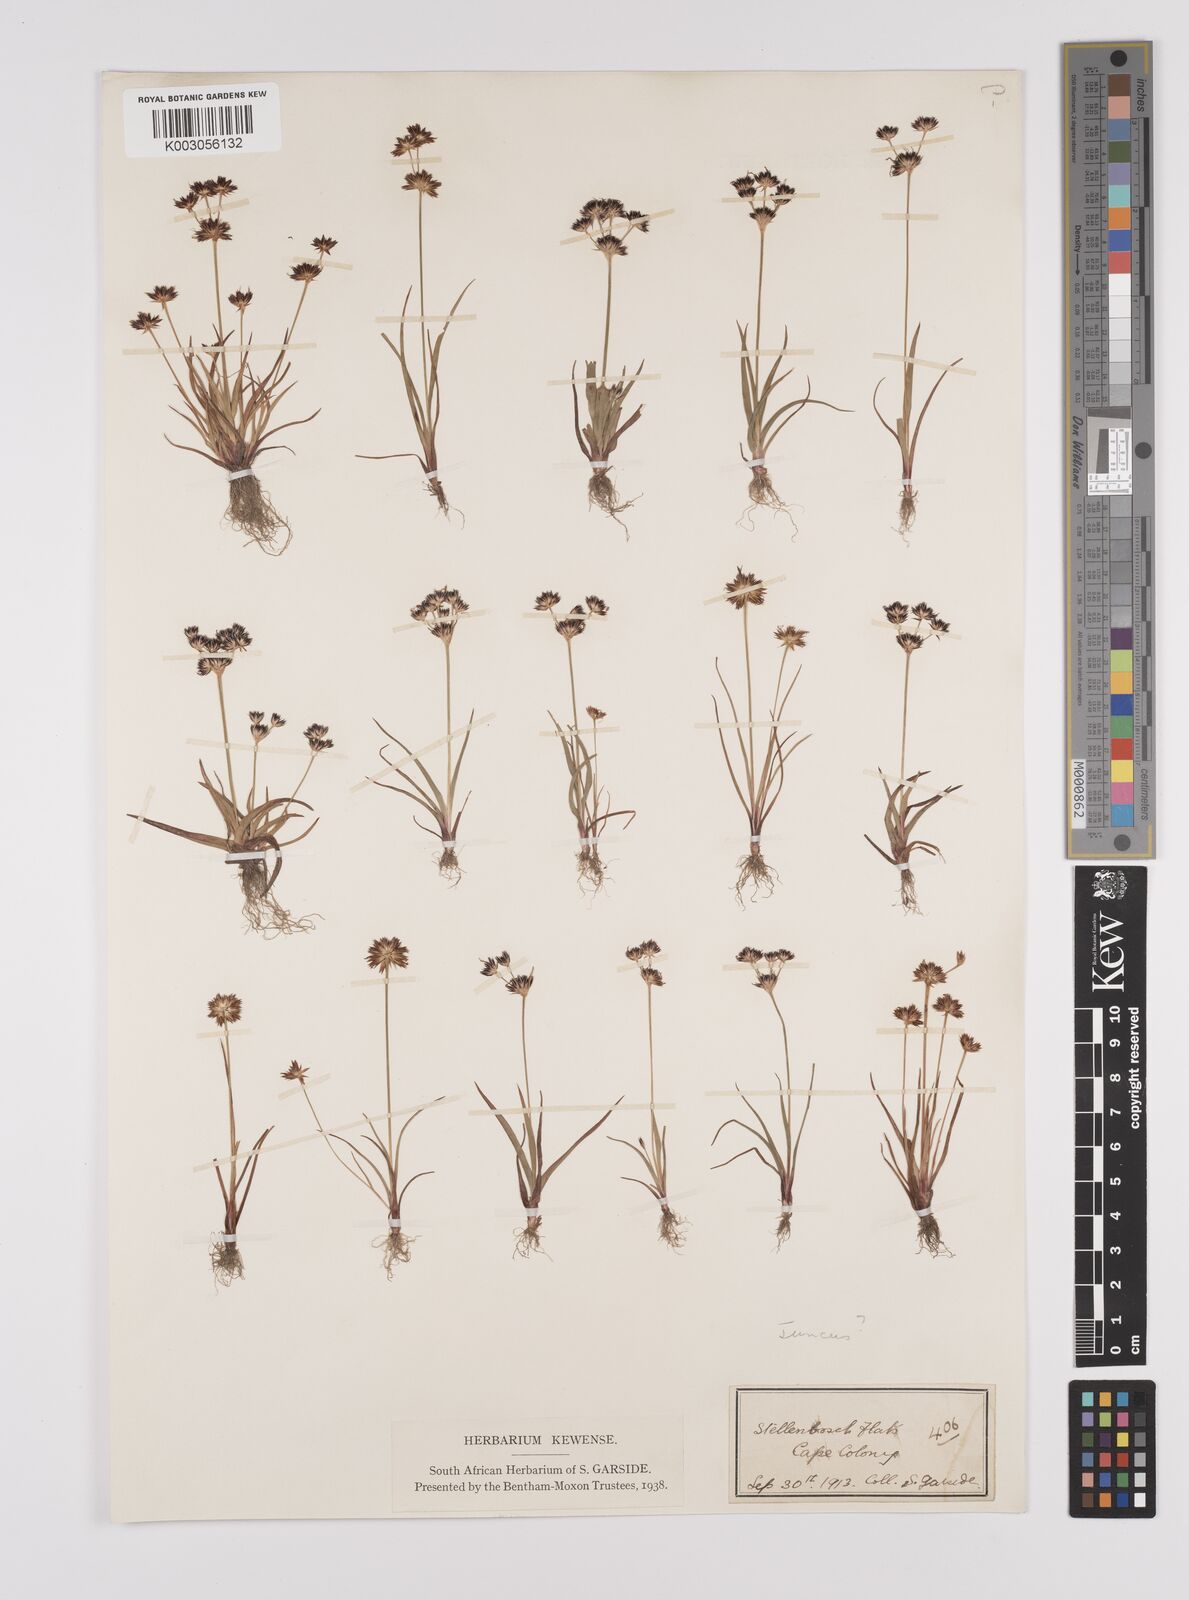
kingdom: Plantae
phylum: Tracheophyta
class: Liliopsida
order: Poales
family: Juncaceae
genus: Juncus
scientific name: Juncus
